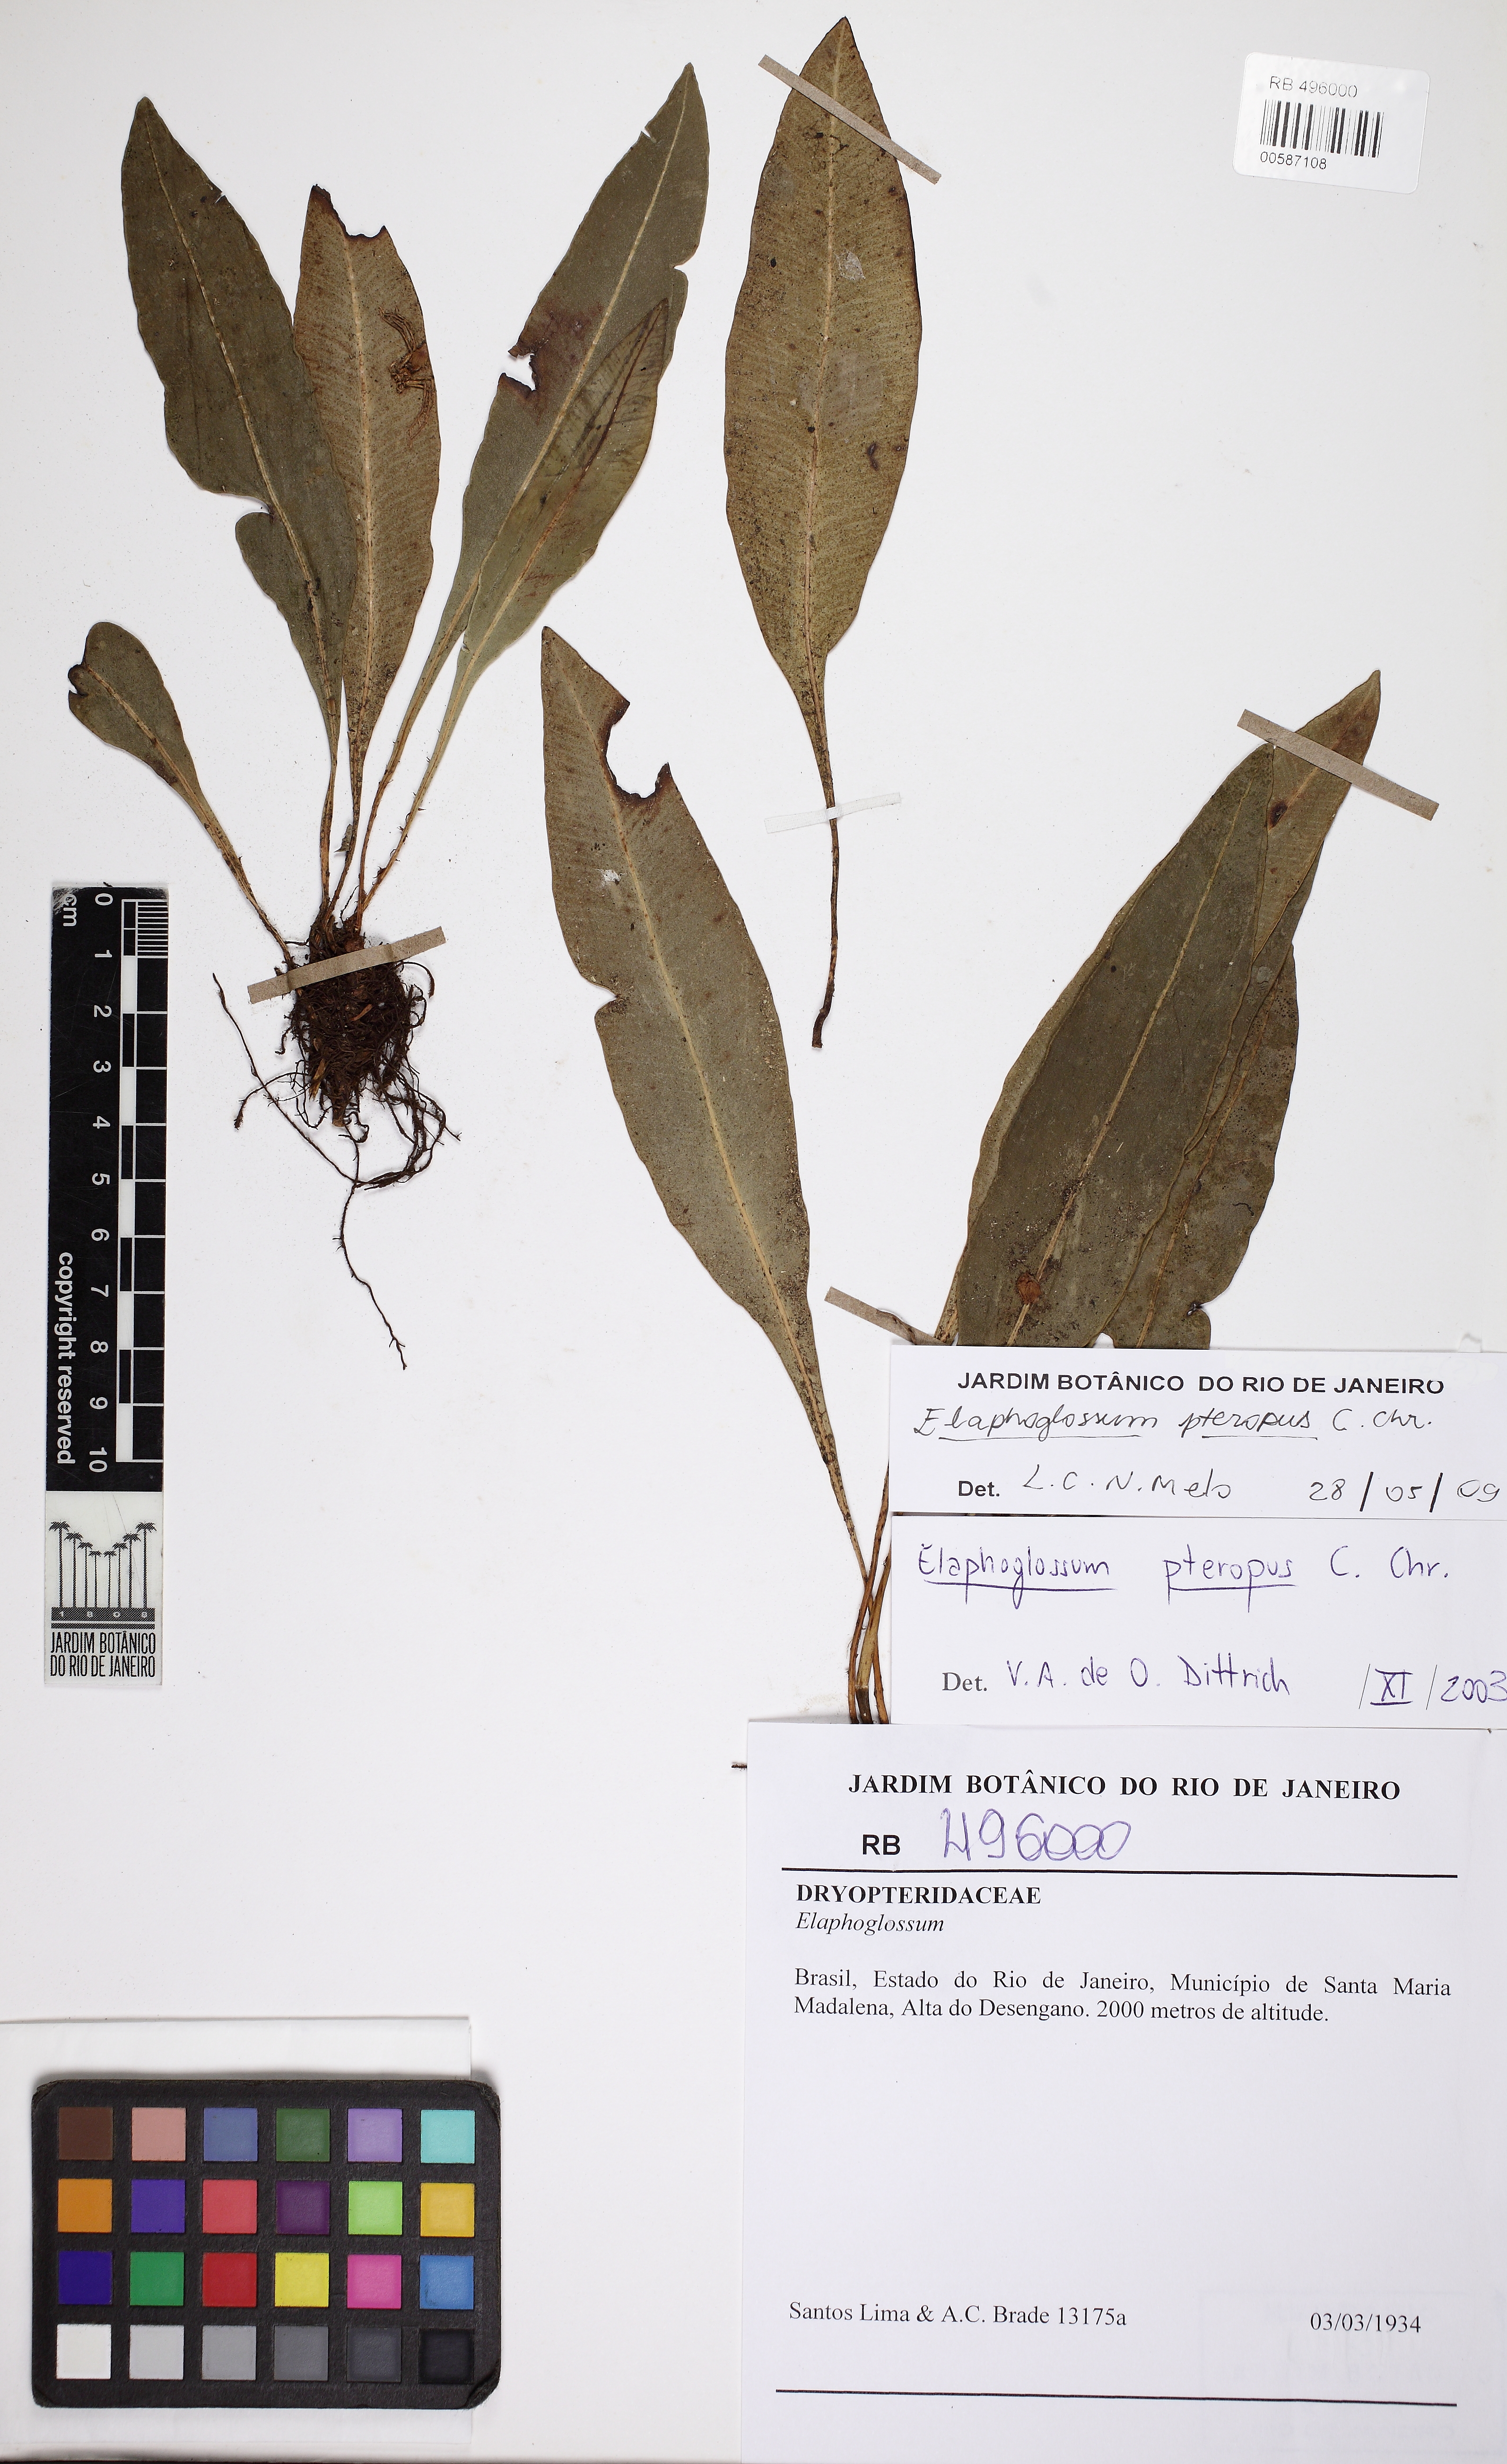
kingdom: Plantae
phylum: Tracheophyta
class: Polypodiopsida
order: Polypodiales
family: Dryopteridaceae
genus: Elaphoglossum
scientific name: Elaphoglossum pteropus
